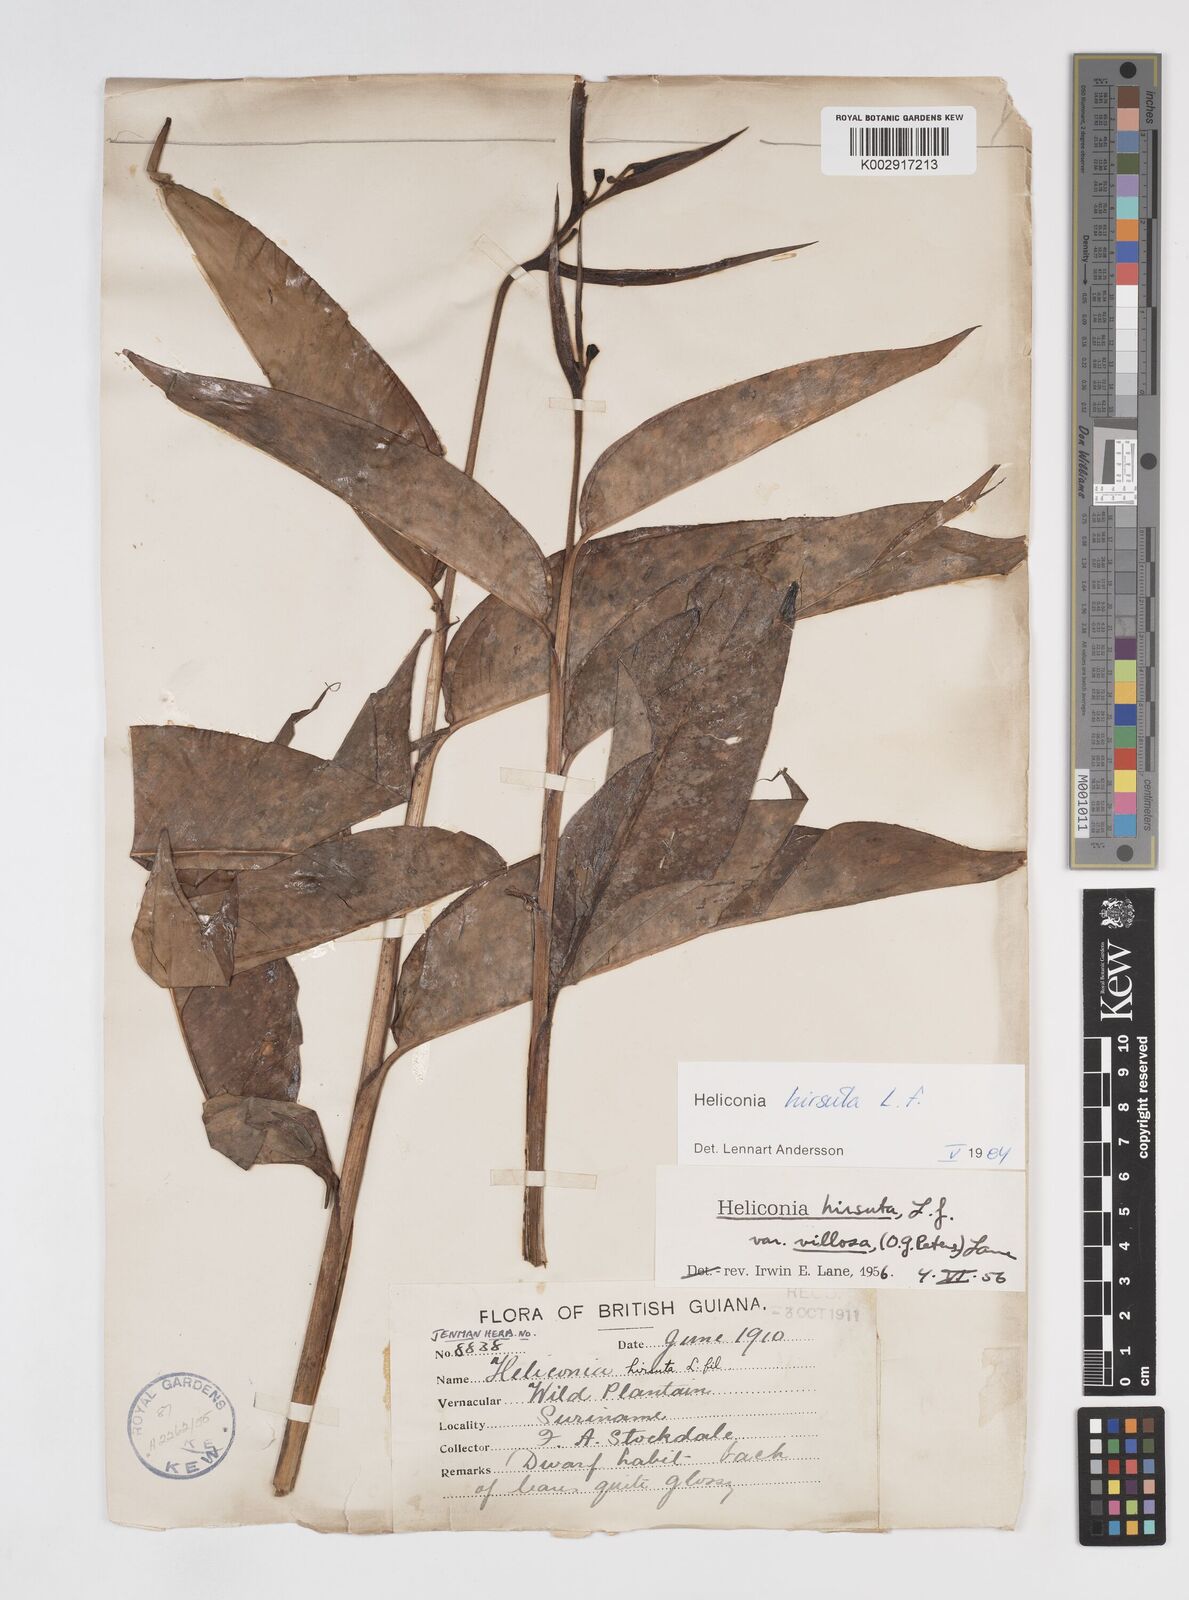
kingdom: Plantae
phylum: Tracheophyta
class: Liliopsida
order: Zingiberales
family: Heliconiaceae
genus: Heliconia
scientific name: Heliconia hirsuta
